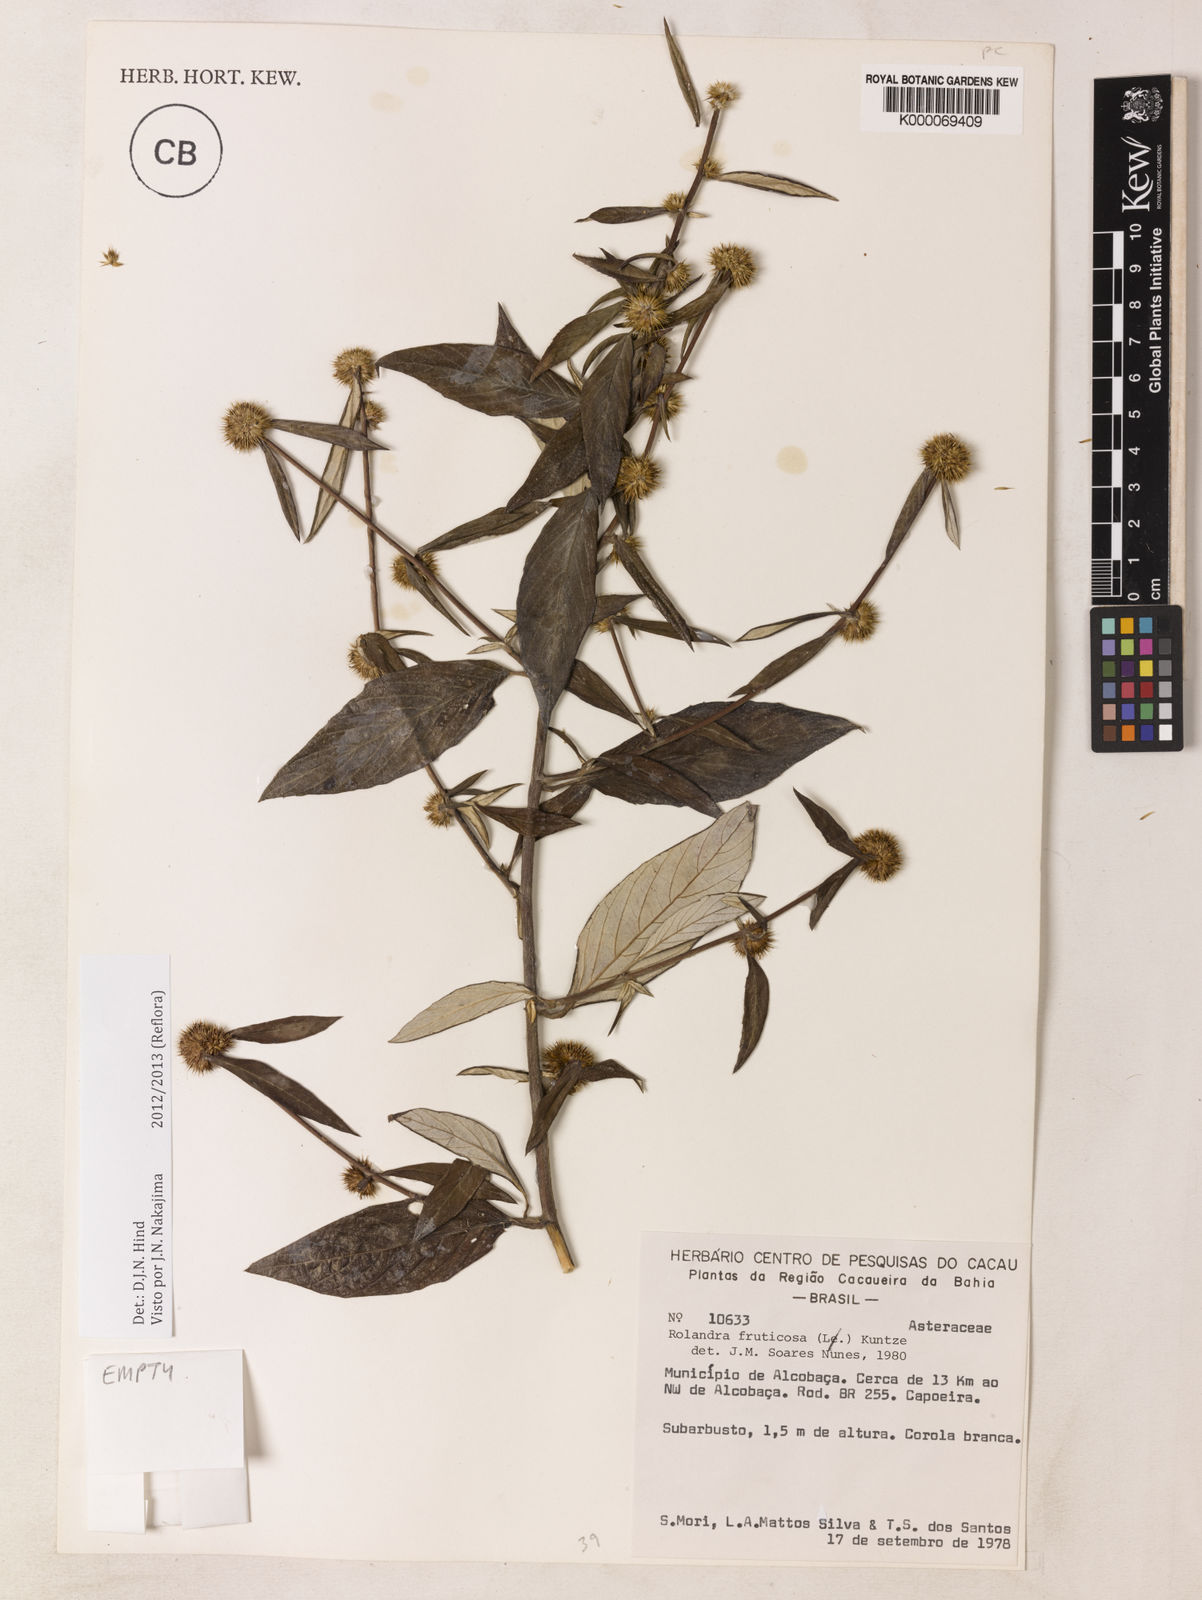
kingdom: Plantae
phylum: Tracheophyta
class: Magnoliopsida
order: Asterales
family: Asteraceae
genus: Rolandra
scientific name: Rolandra fruticosa
